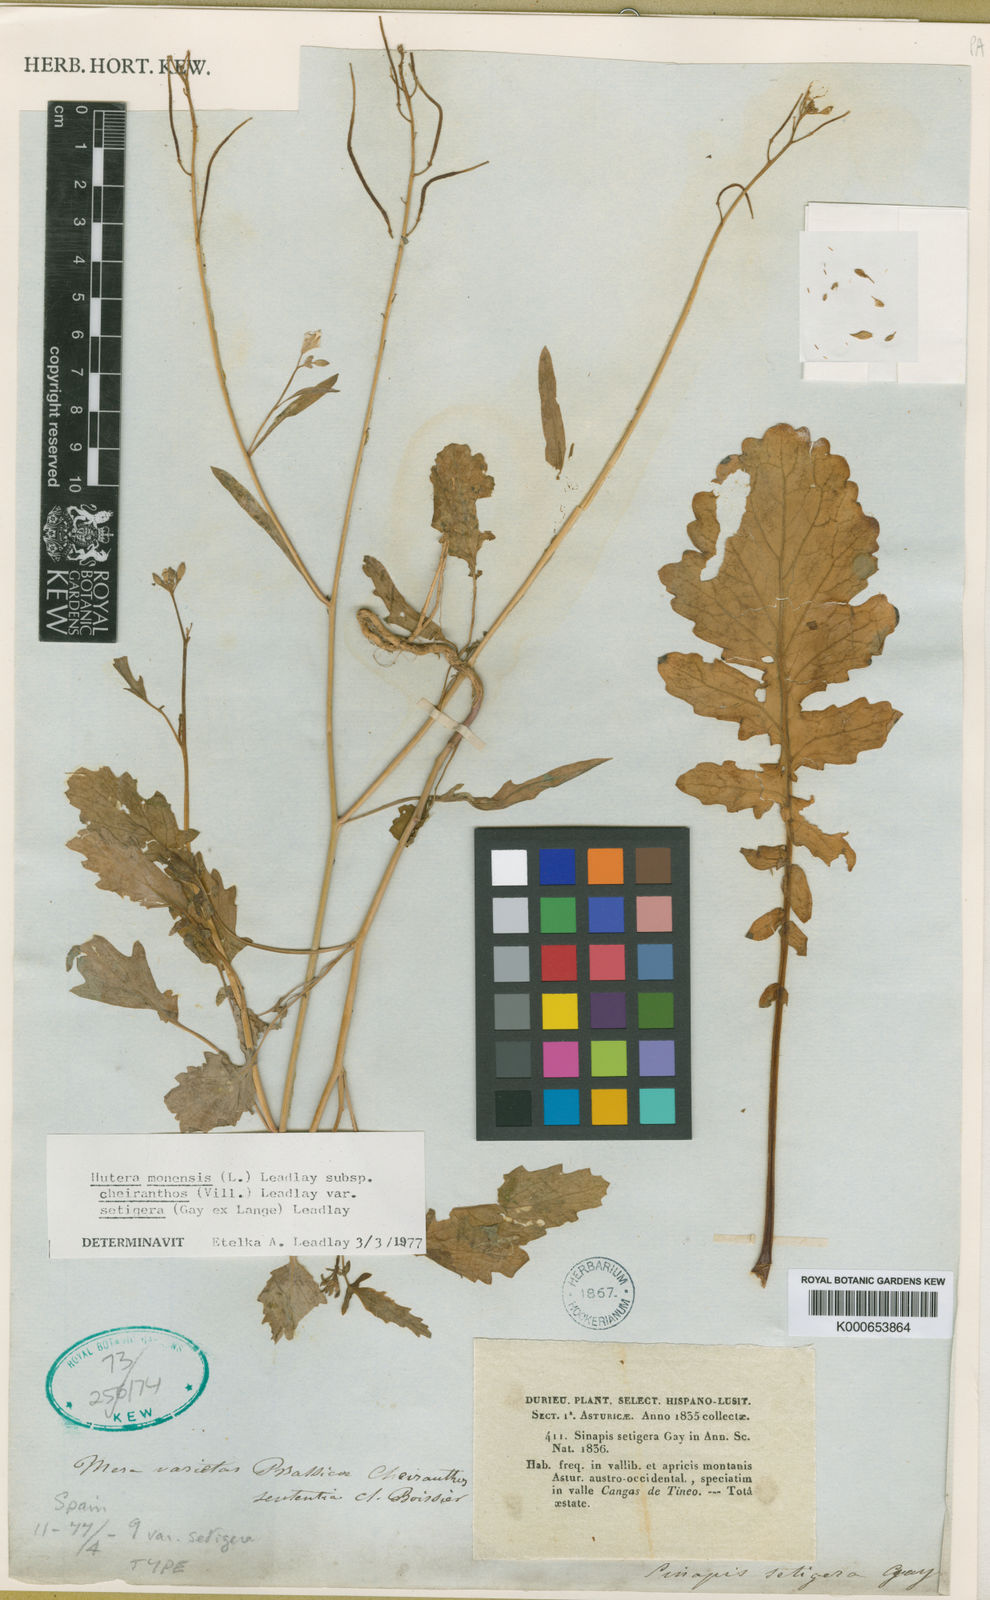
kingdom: Plantae
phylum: Tracheophyta
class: Magnoliopsida
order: Brassicales
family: Brassicaceae
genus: Coincya
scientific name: Coincya monensis
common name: Star-mustard
